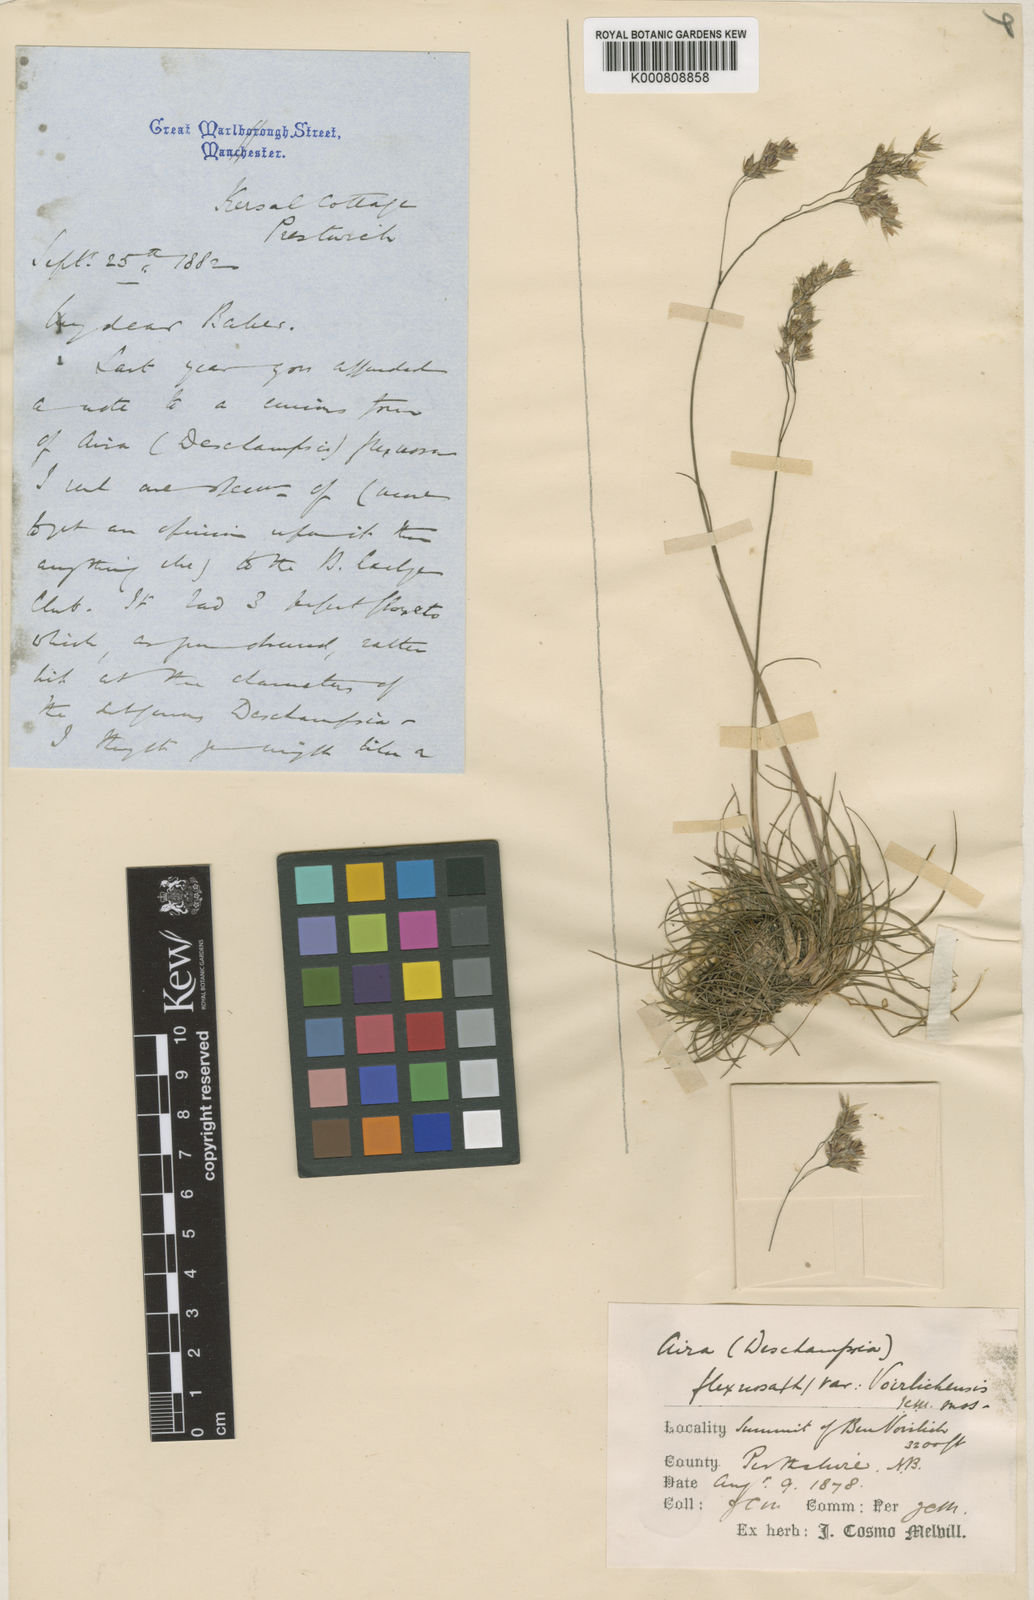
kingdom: Plantae
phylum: Tracheophyta
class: Liliopsida
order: Poales
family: Poaceae
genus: Avenella
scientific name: Avenella flexuosa
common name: Wavy hairgrass
